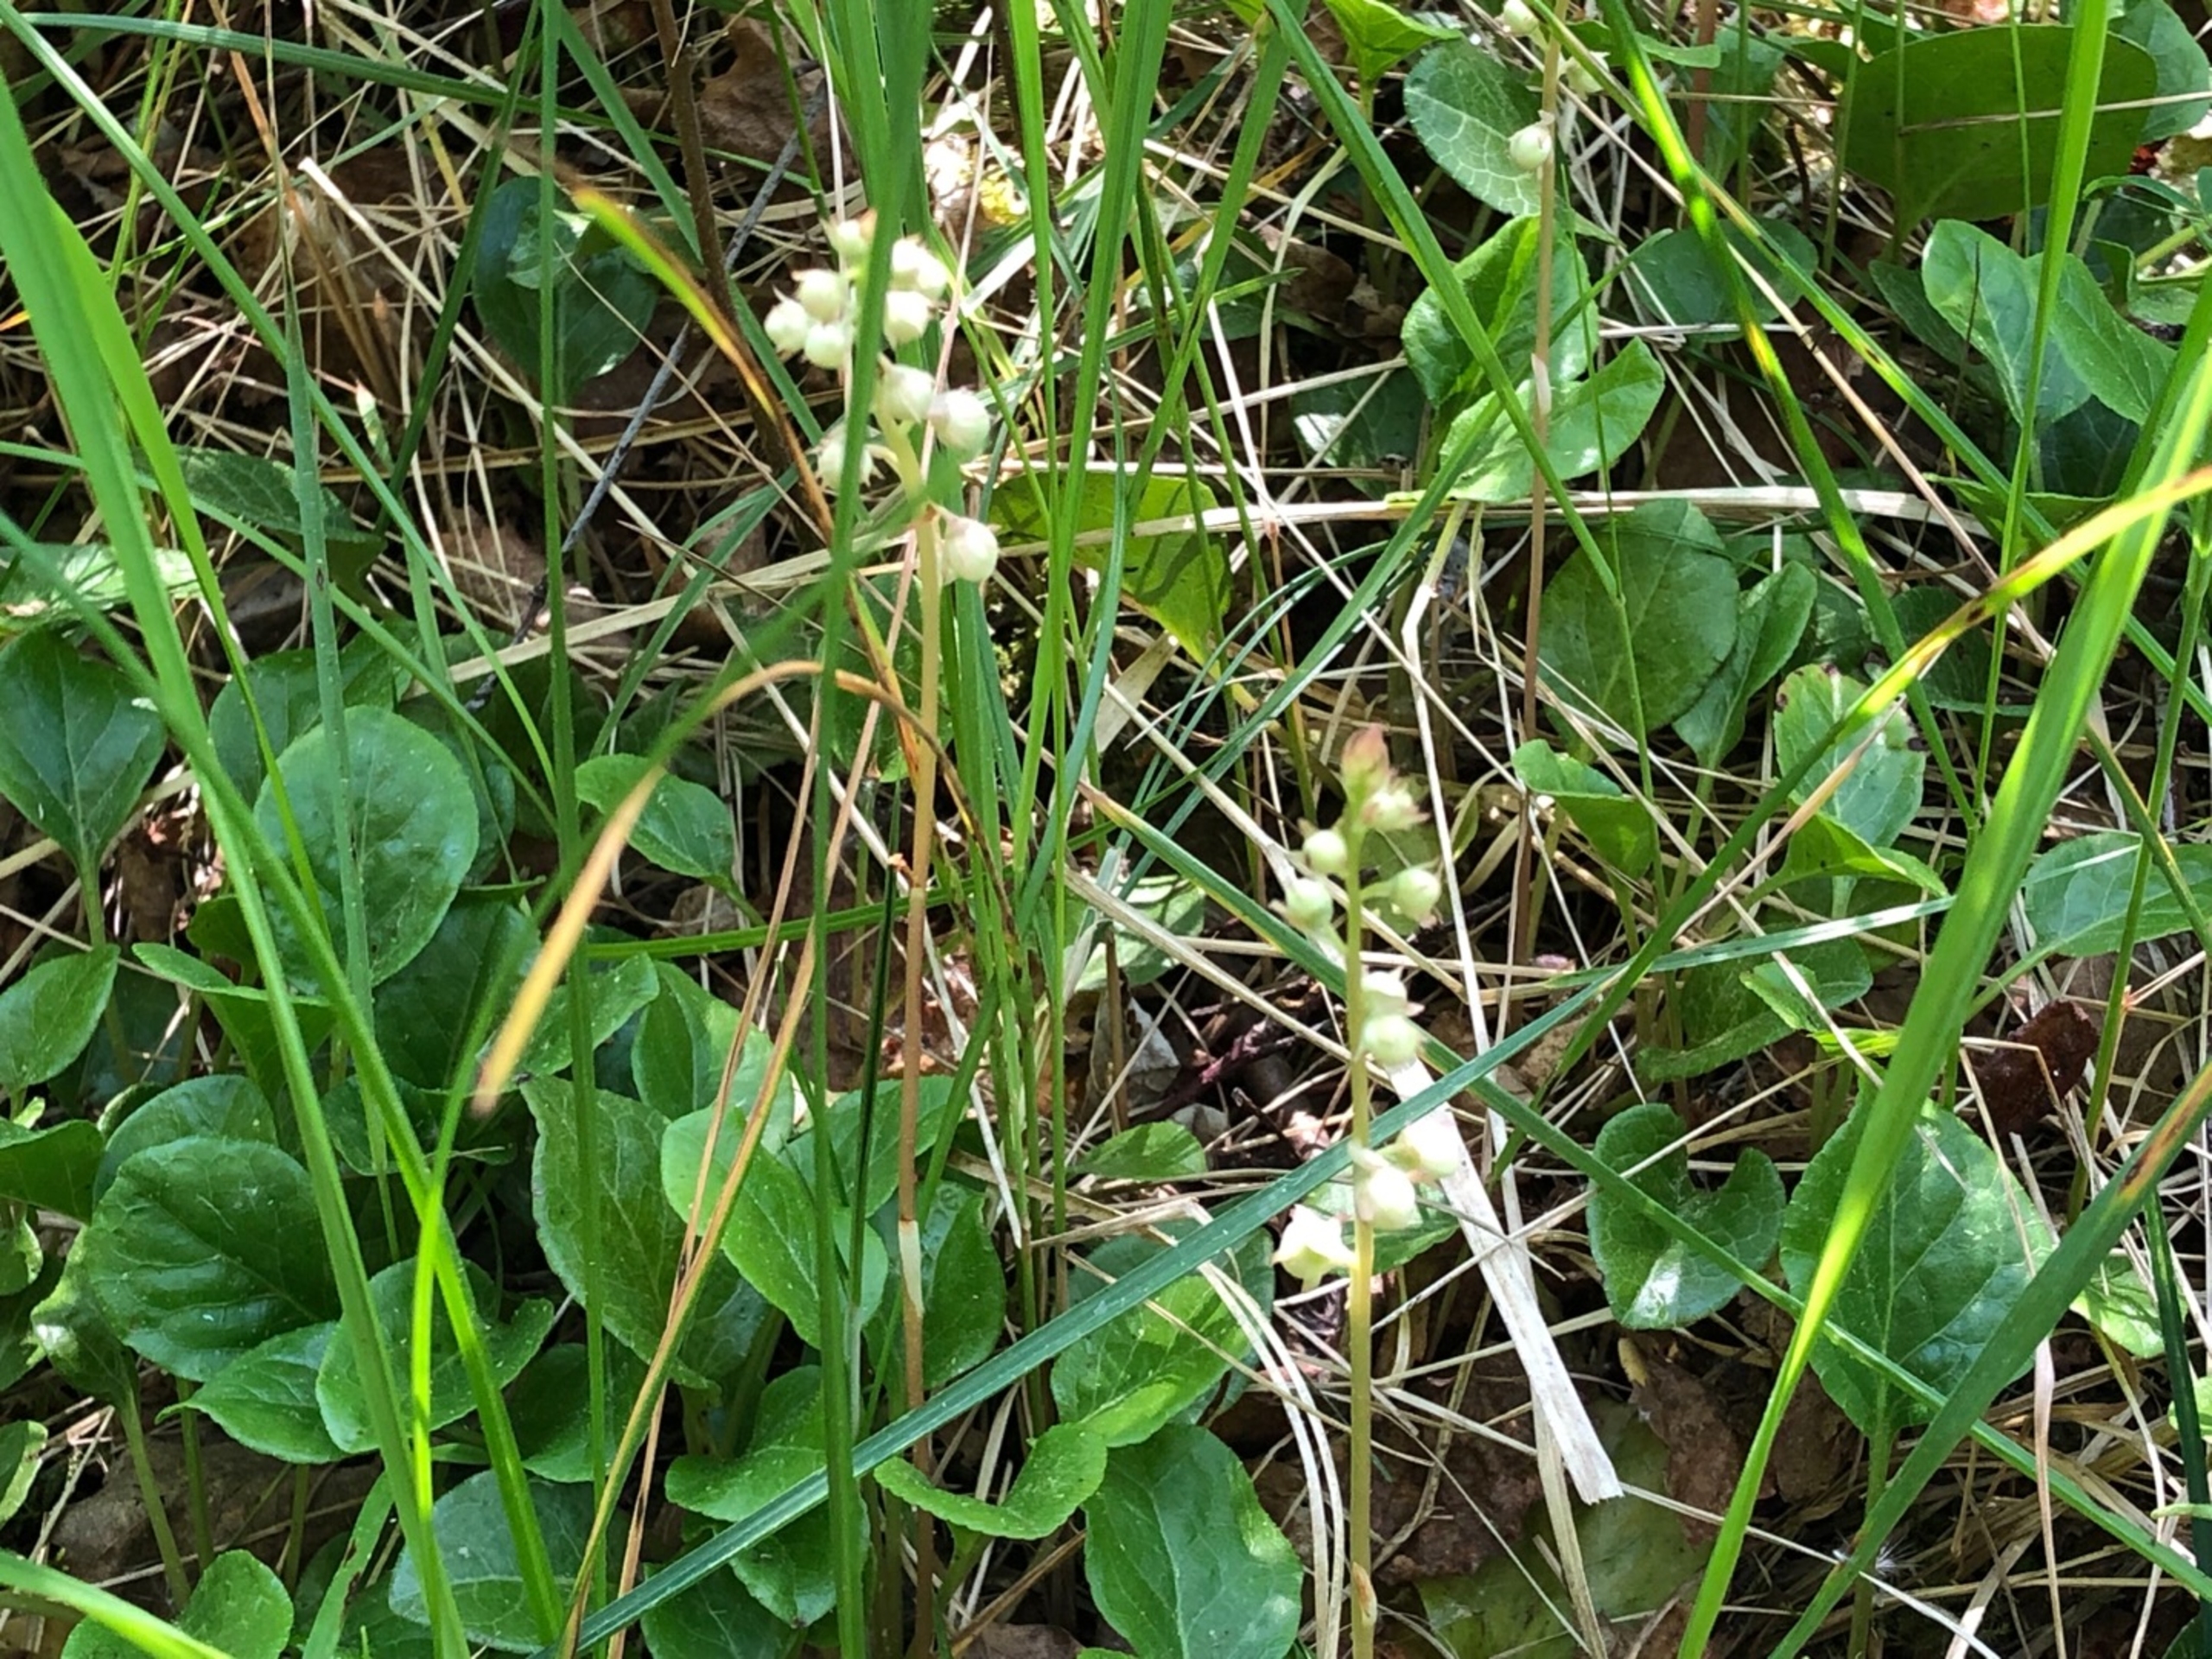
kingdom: Plantae
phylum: Tracheophyta
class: Magnoliopsida
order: Ericales
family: Ericaceae
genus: Pyrola
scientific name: Pyrola rotundifolia
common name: Mose-vintergrøn
